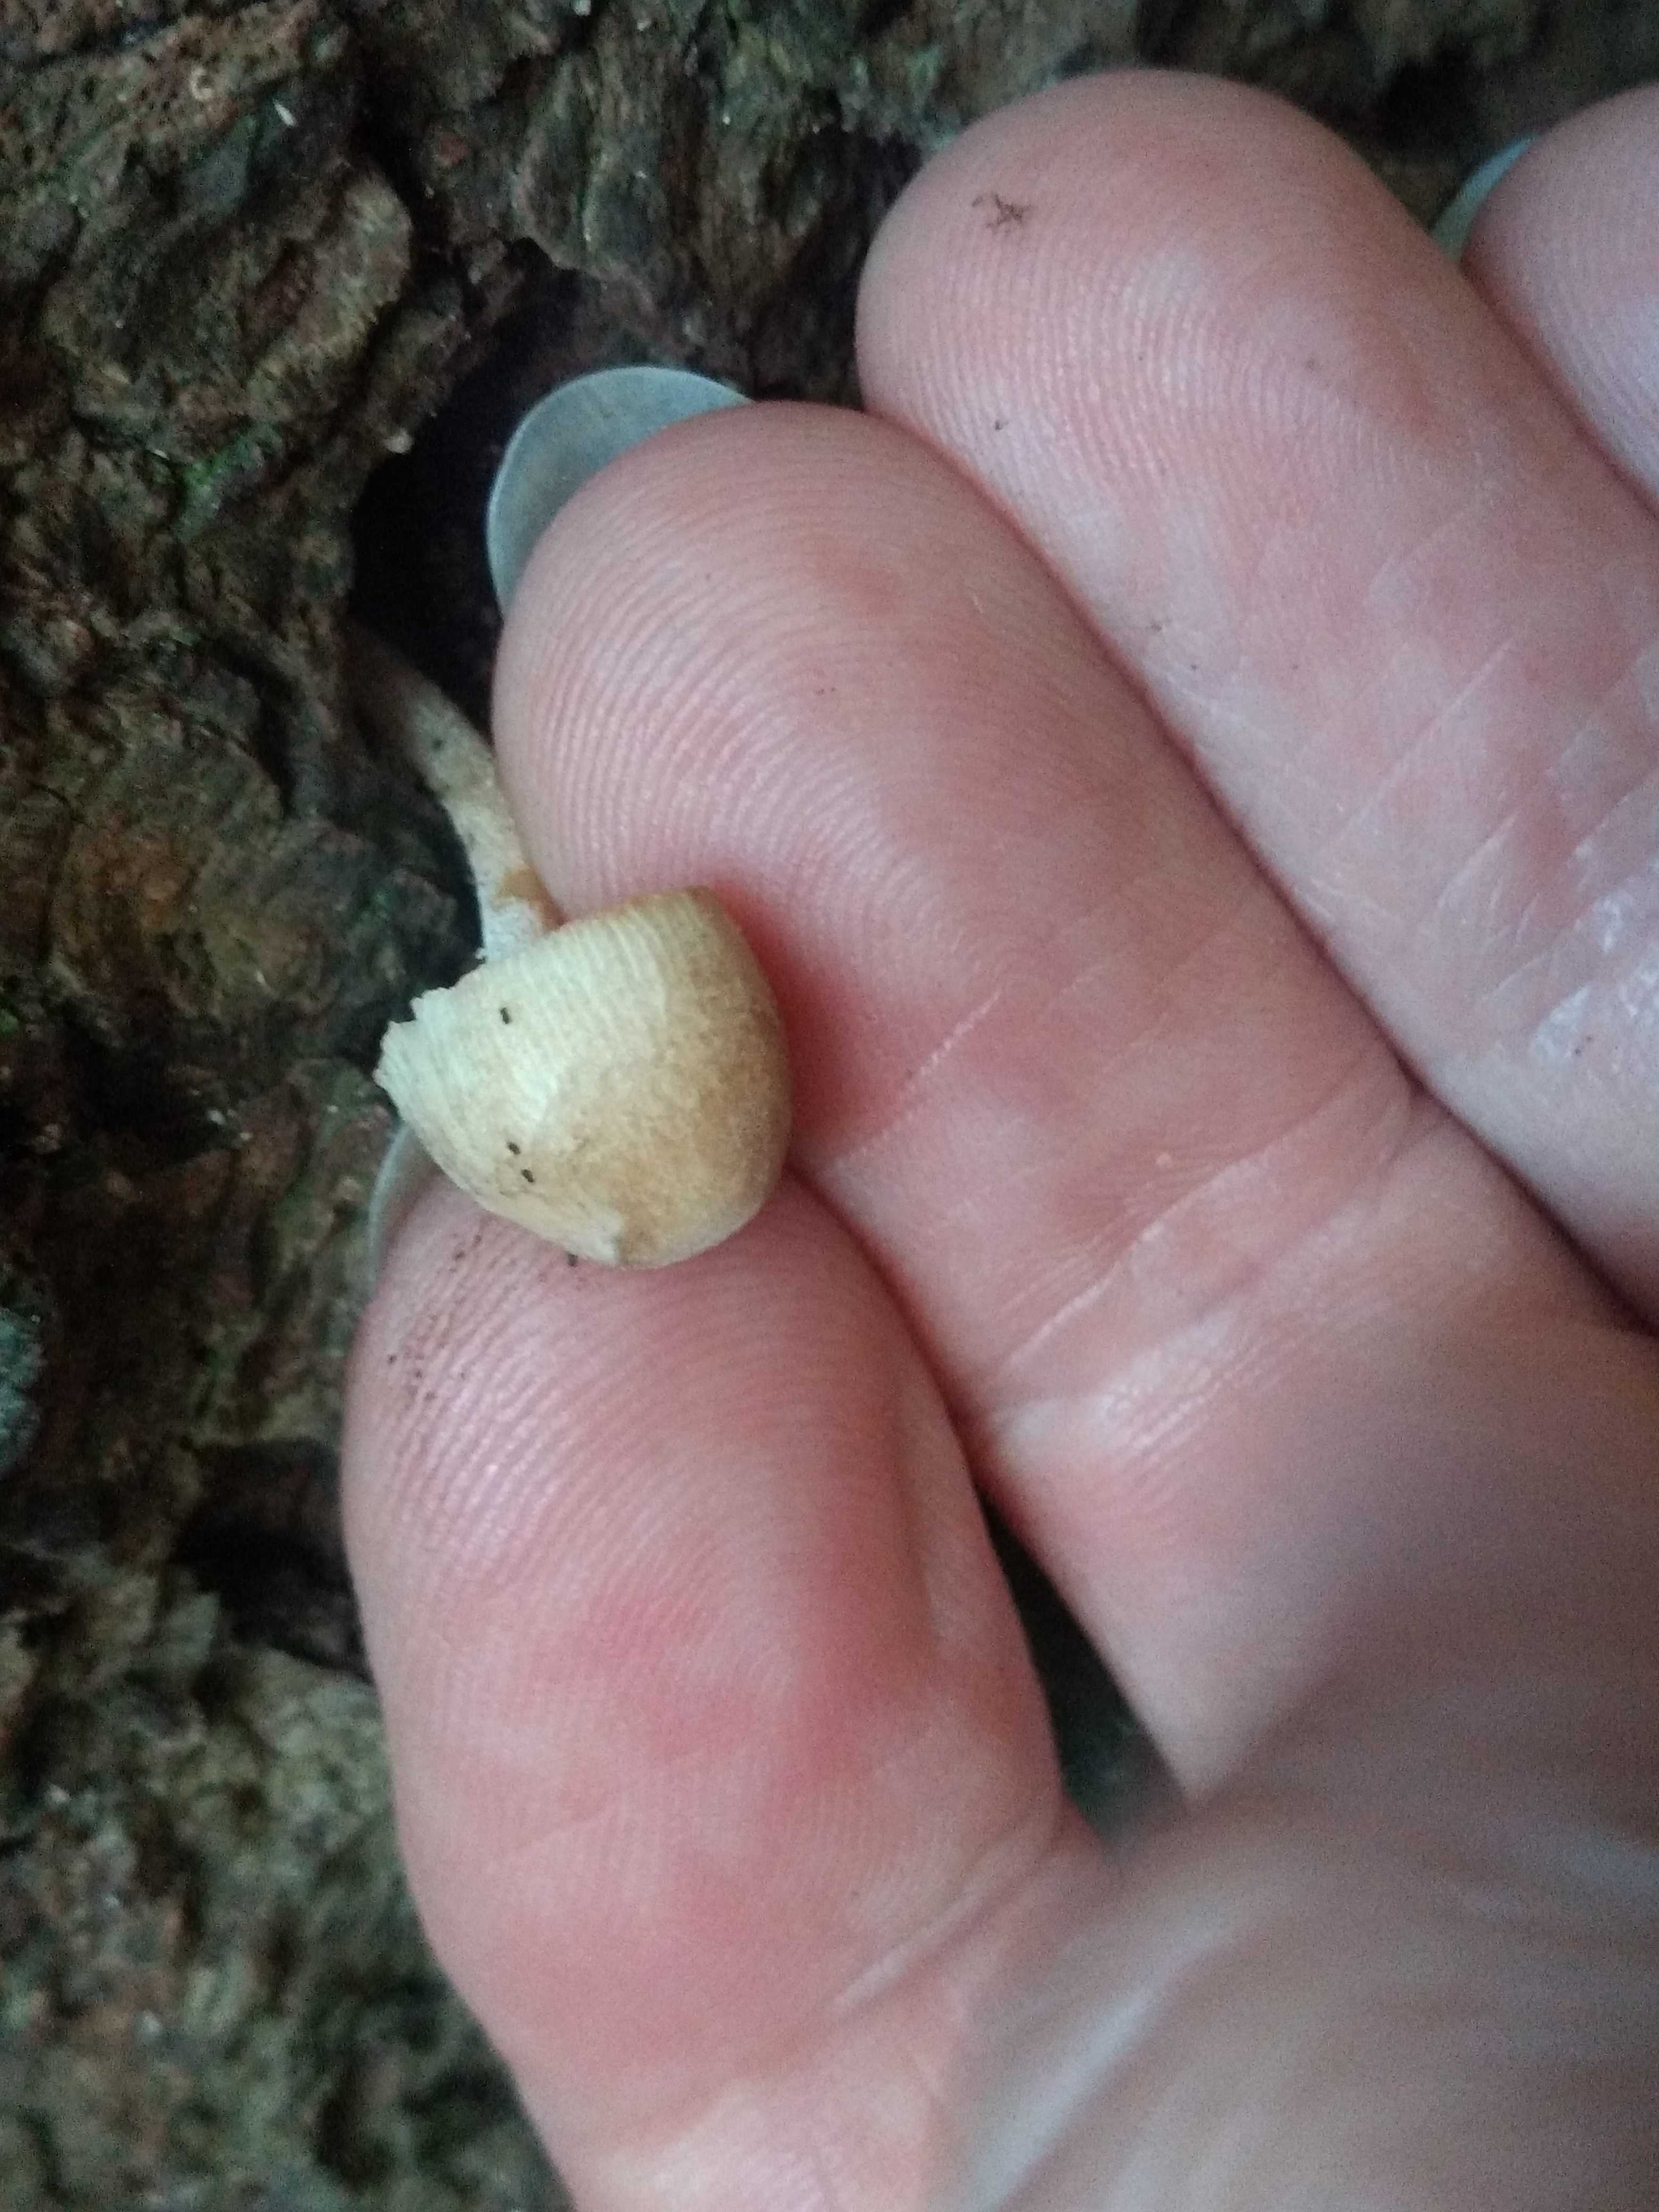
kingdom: Fungi
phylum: Basidiomycota
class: Agaricomycetes
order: Agaricales
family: Pluteaceae
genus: Pluteus
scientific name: Pluteus
